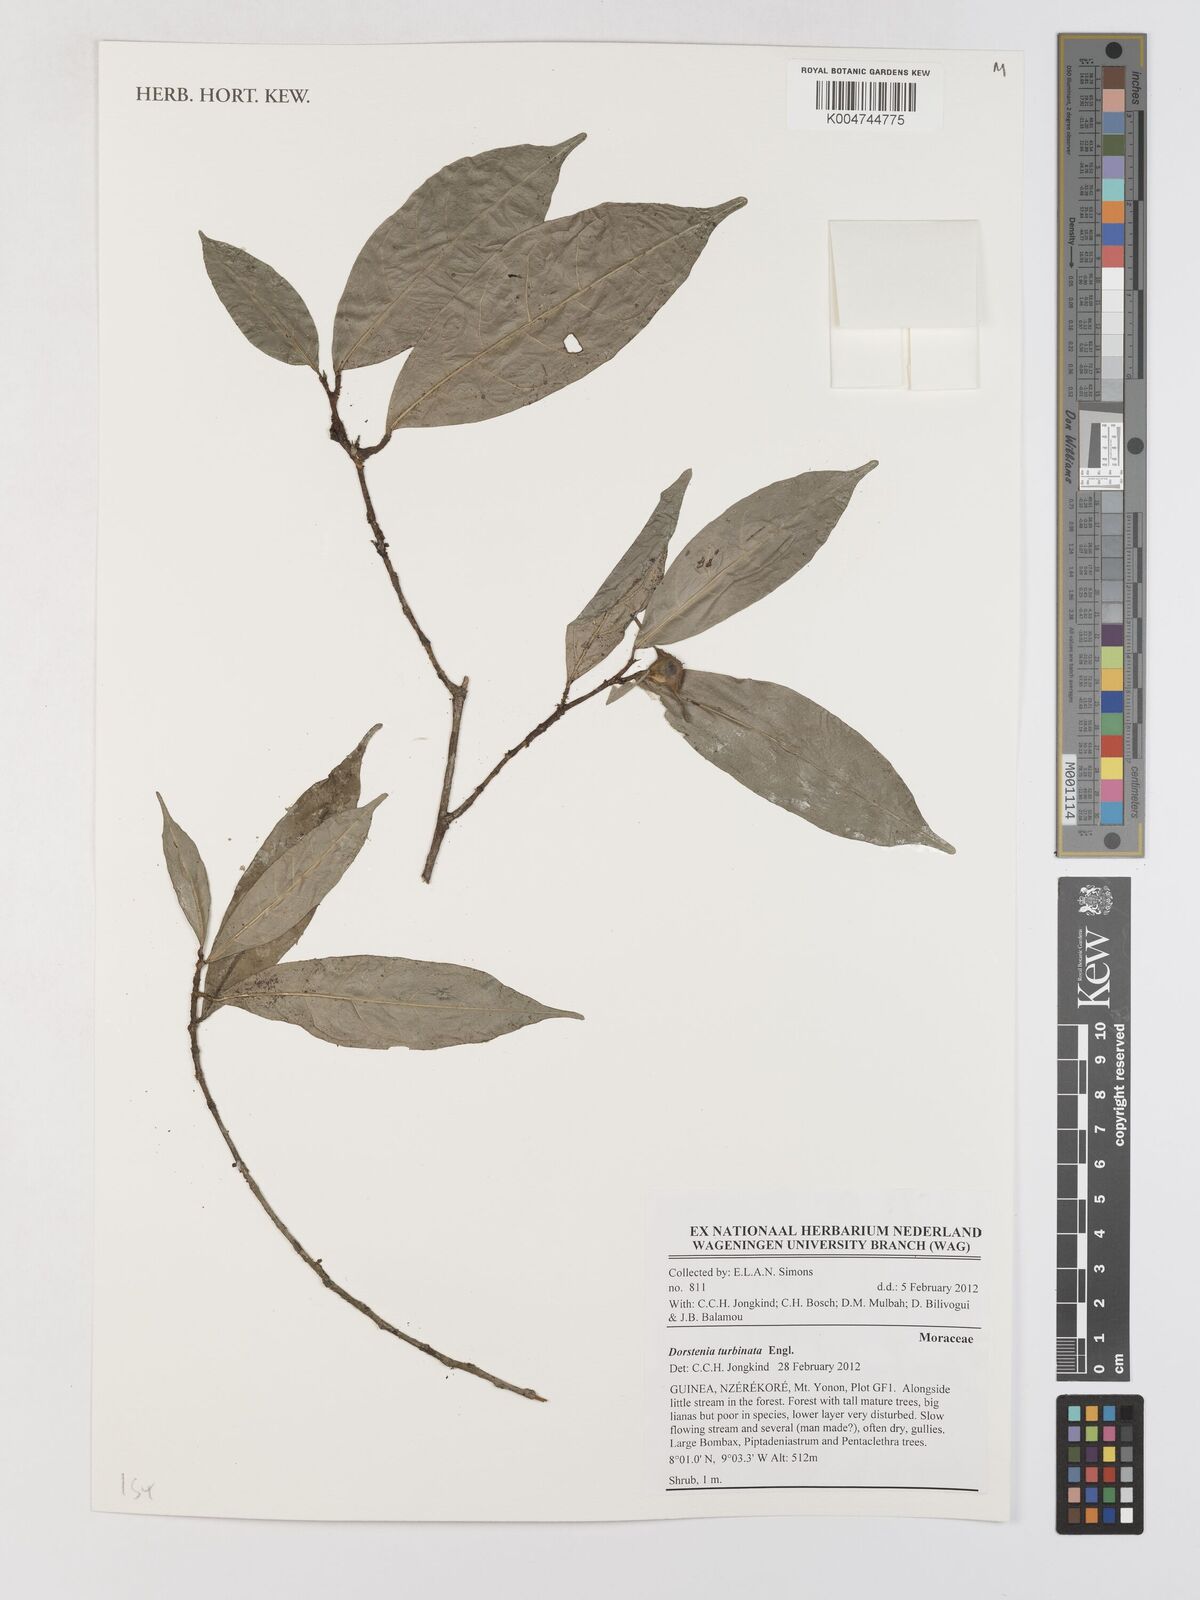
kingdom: Plantae
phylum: Tracheophyta
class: Magnoliopsida
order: Rosales
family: Moraceae
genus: Hijmania
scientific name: Hijmania turbinata
